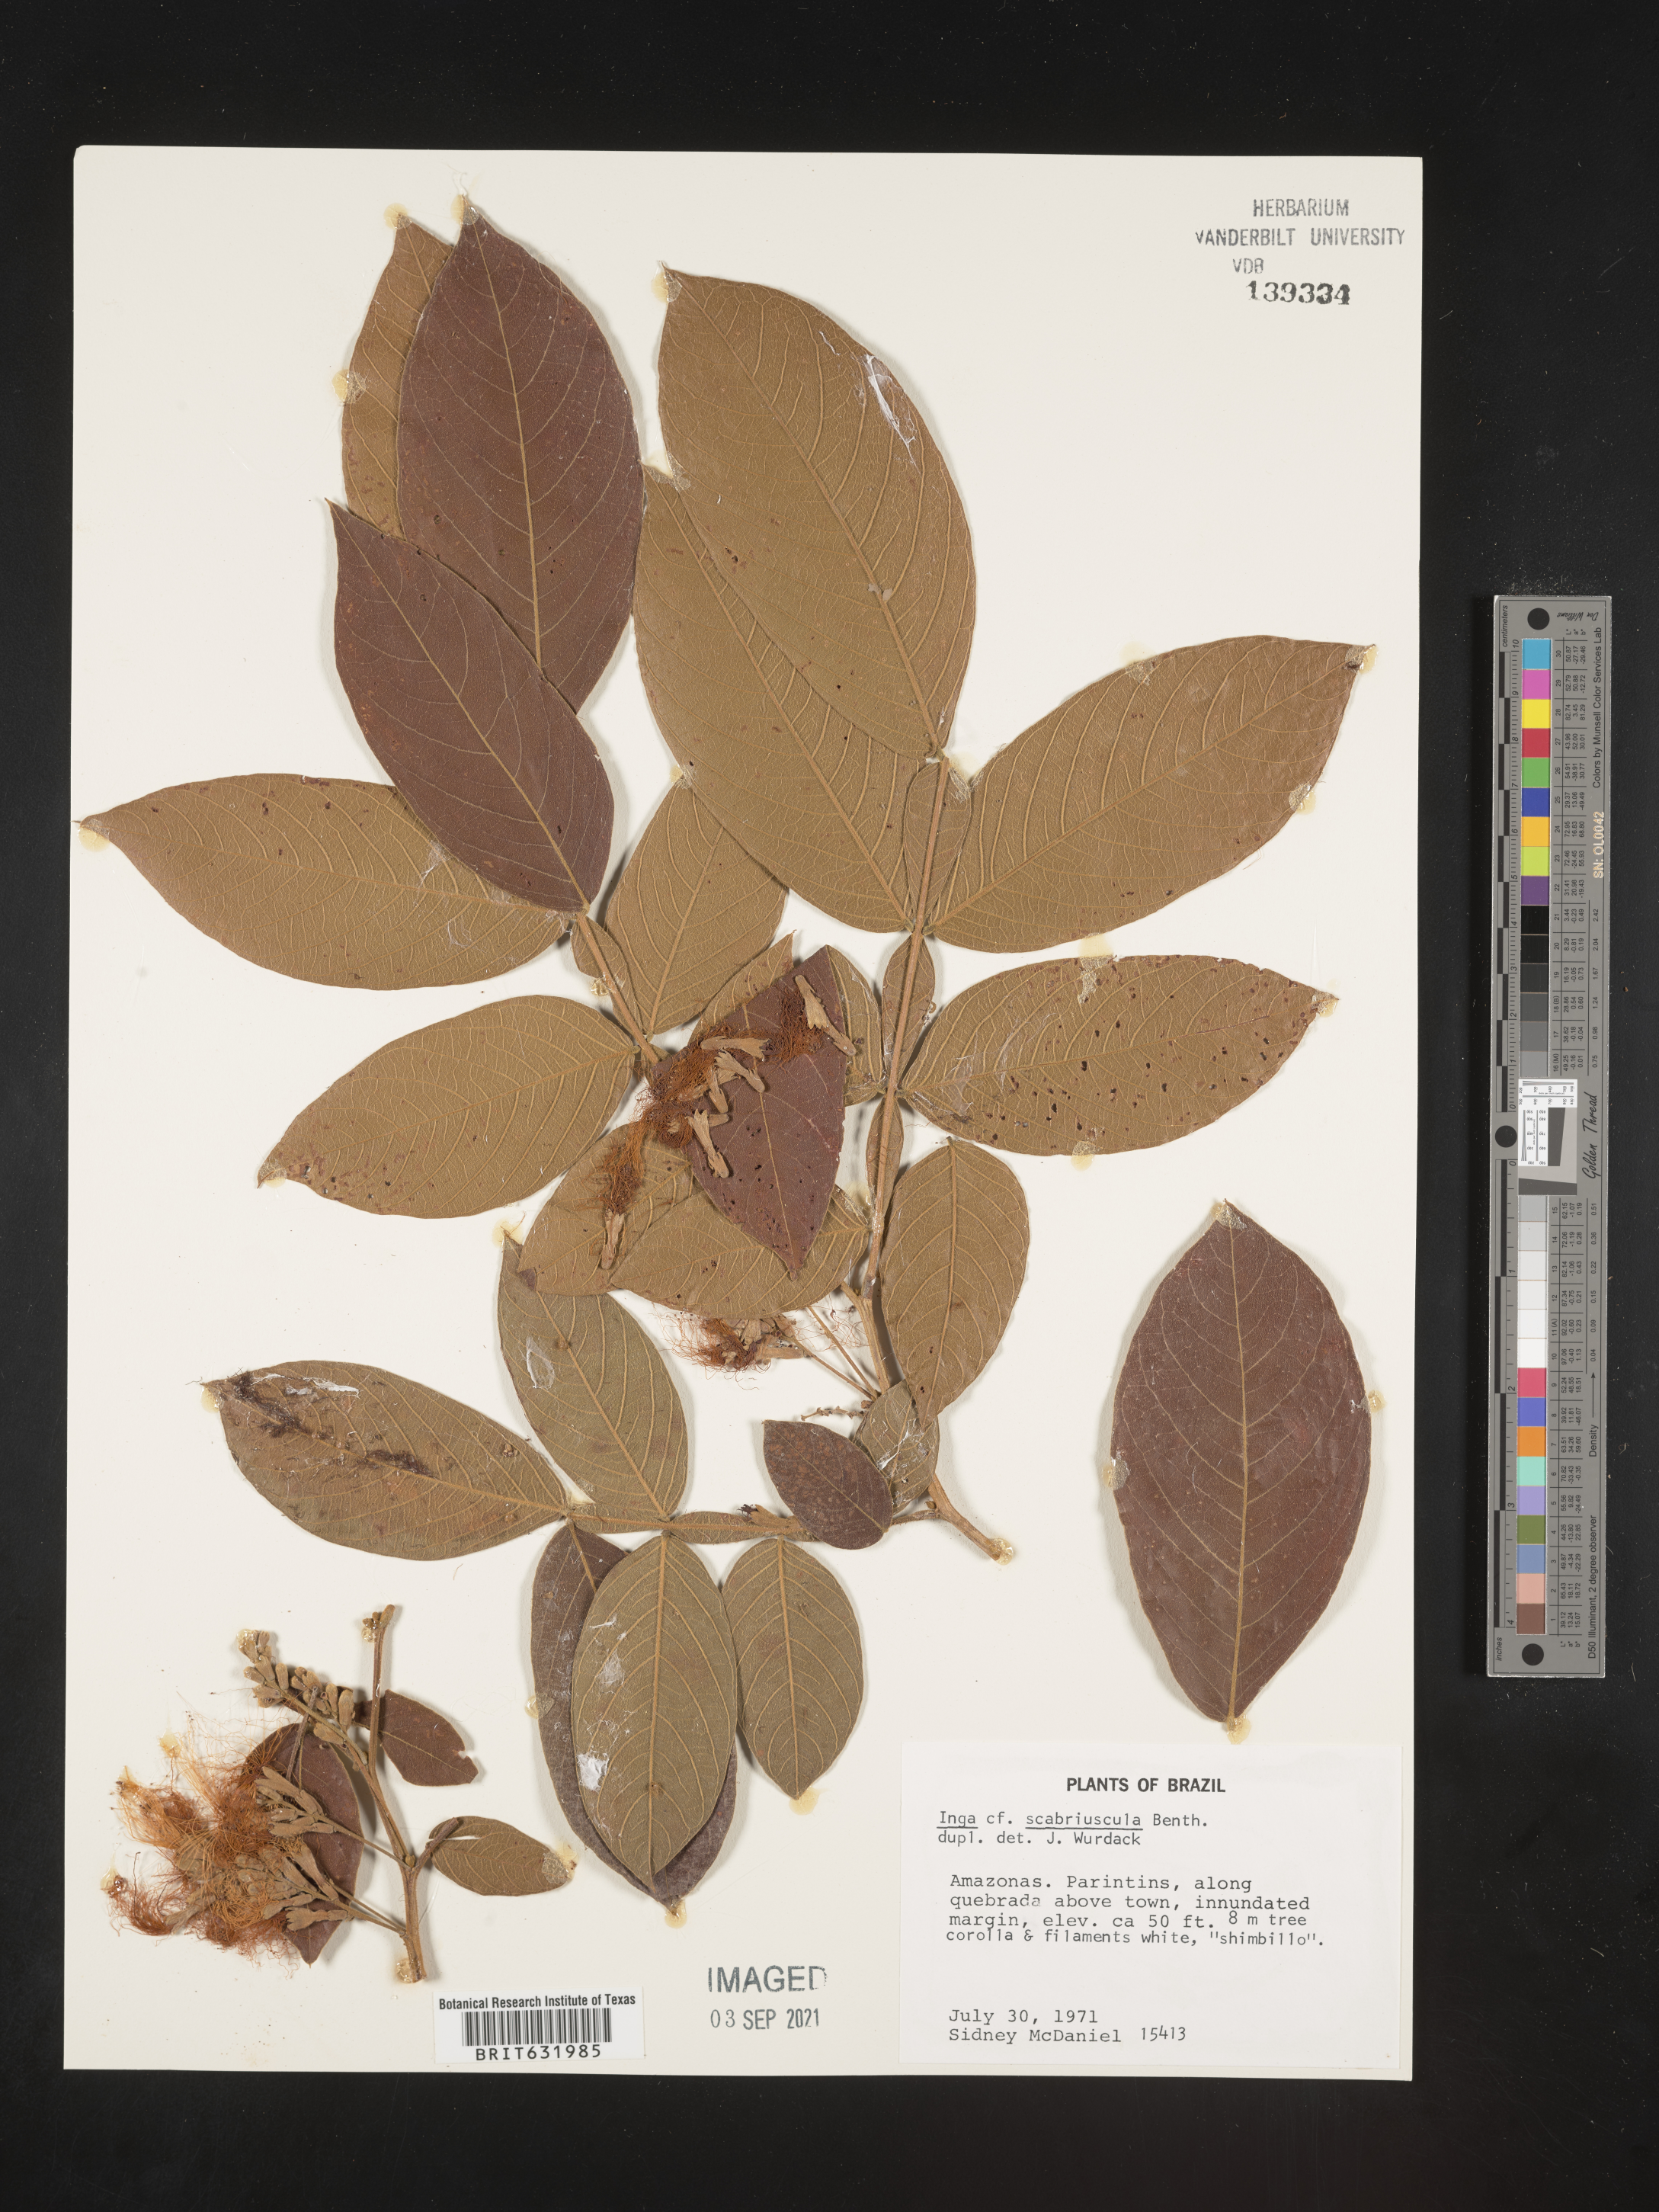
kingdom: Plantae
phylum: Tracheophyta
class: Magnoliopsida
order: Fabales
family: Fabaceae
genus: Inga
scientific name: Inga
